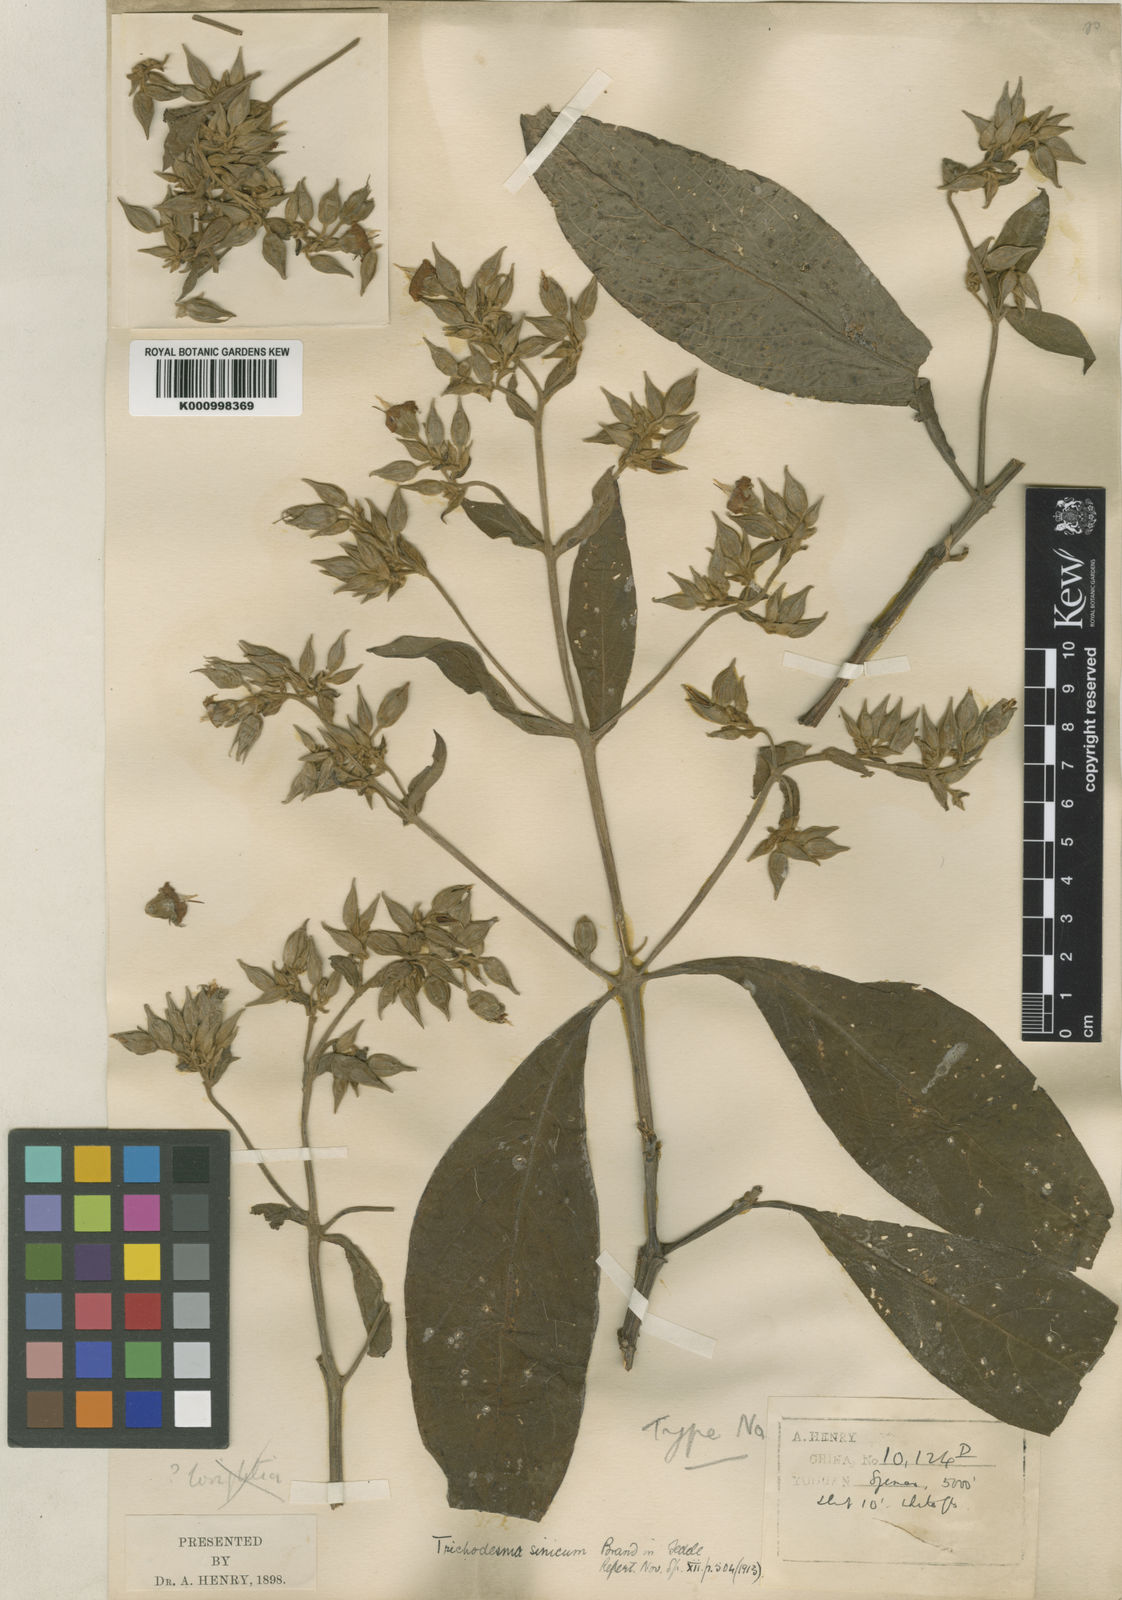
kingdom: Plantae
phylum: Tracheophyta
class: Magnoliopsida
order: Boraginales
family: Boraginaceae
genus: Trichodesma
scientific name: Trichodesma calycosum
